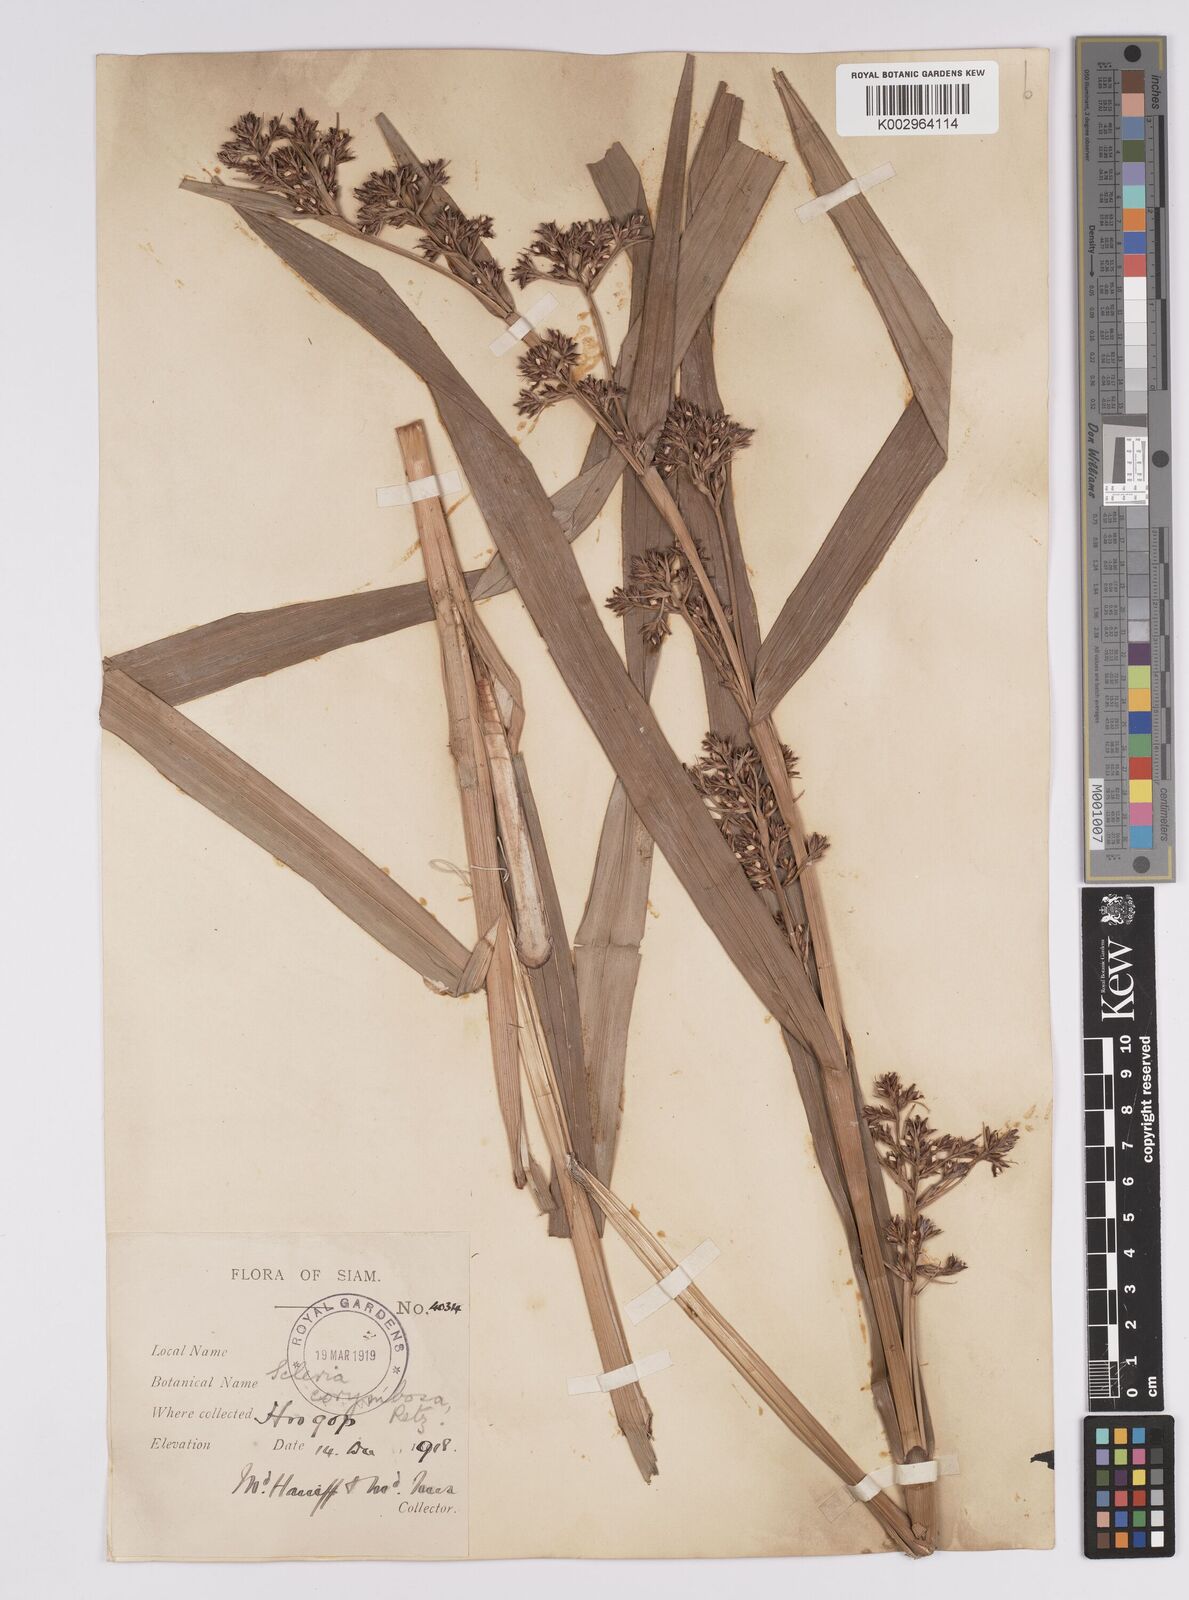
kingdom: Plantae
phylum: Tracheophyta
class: Liliopsida
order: Poales
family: Cyperaceae
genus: Scleria
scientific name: Scleria corymbosa
